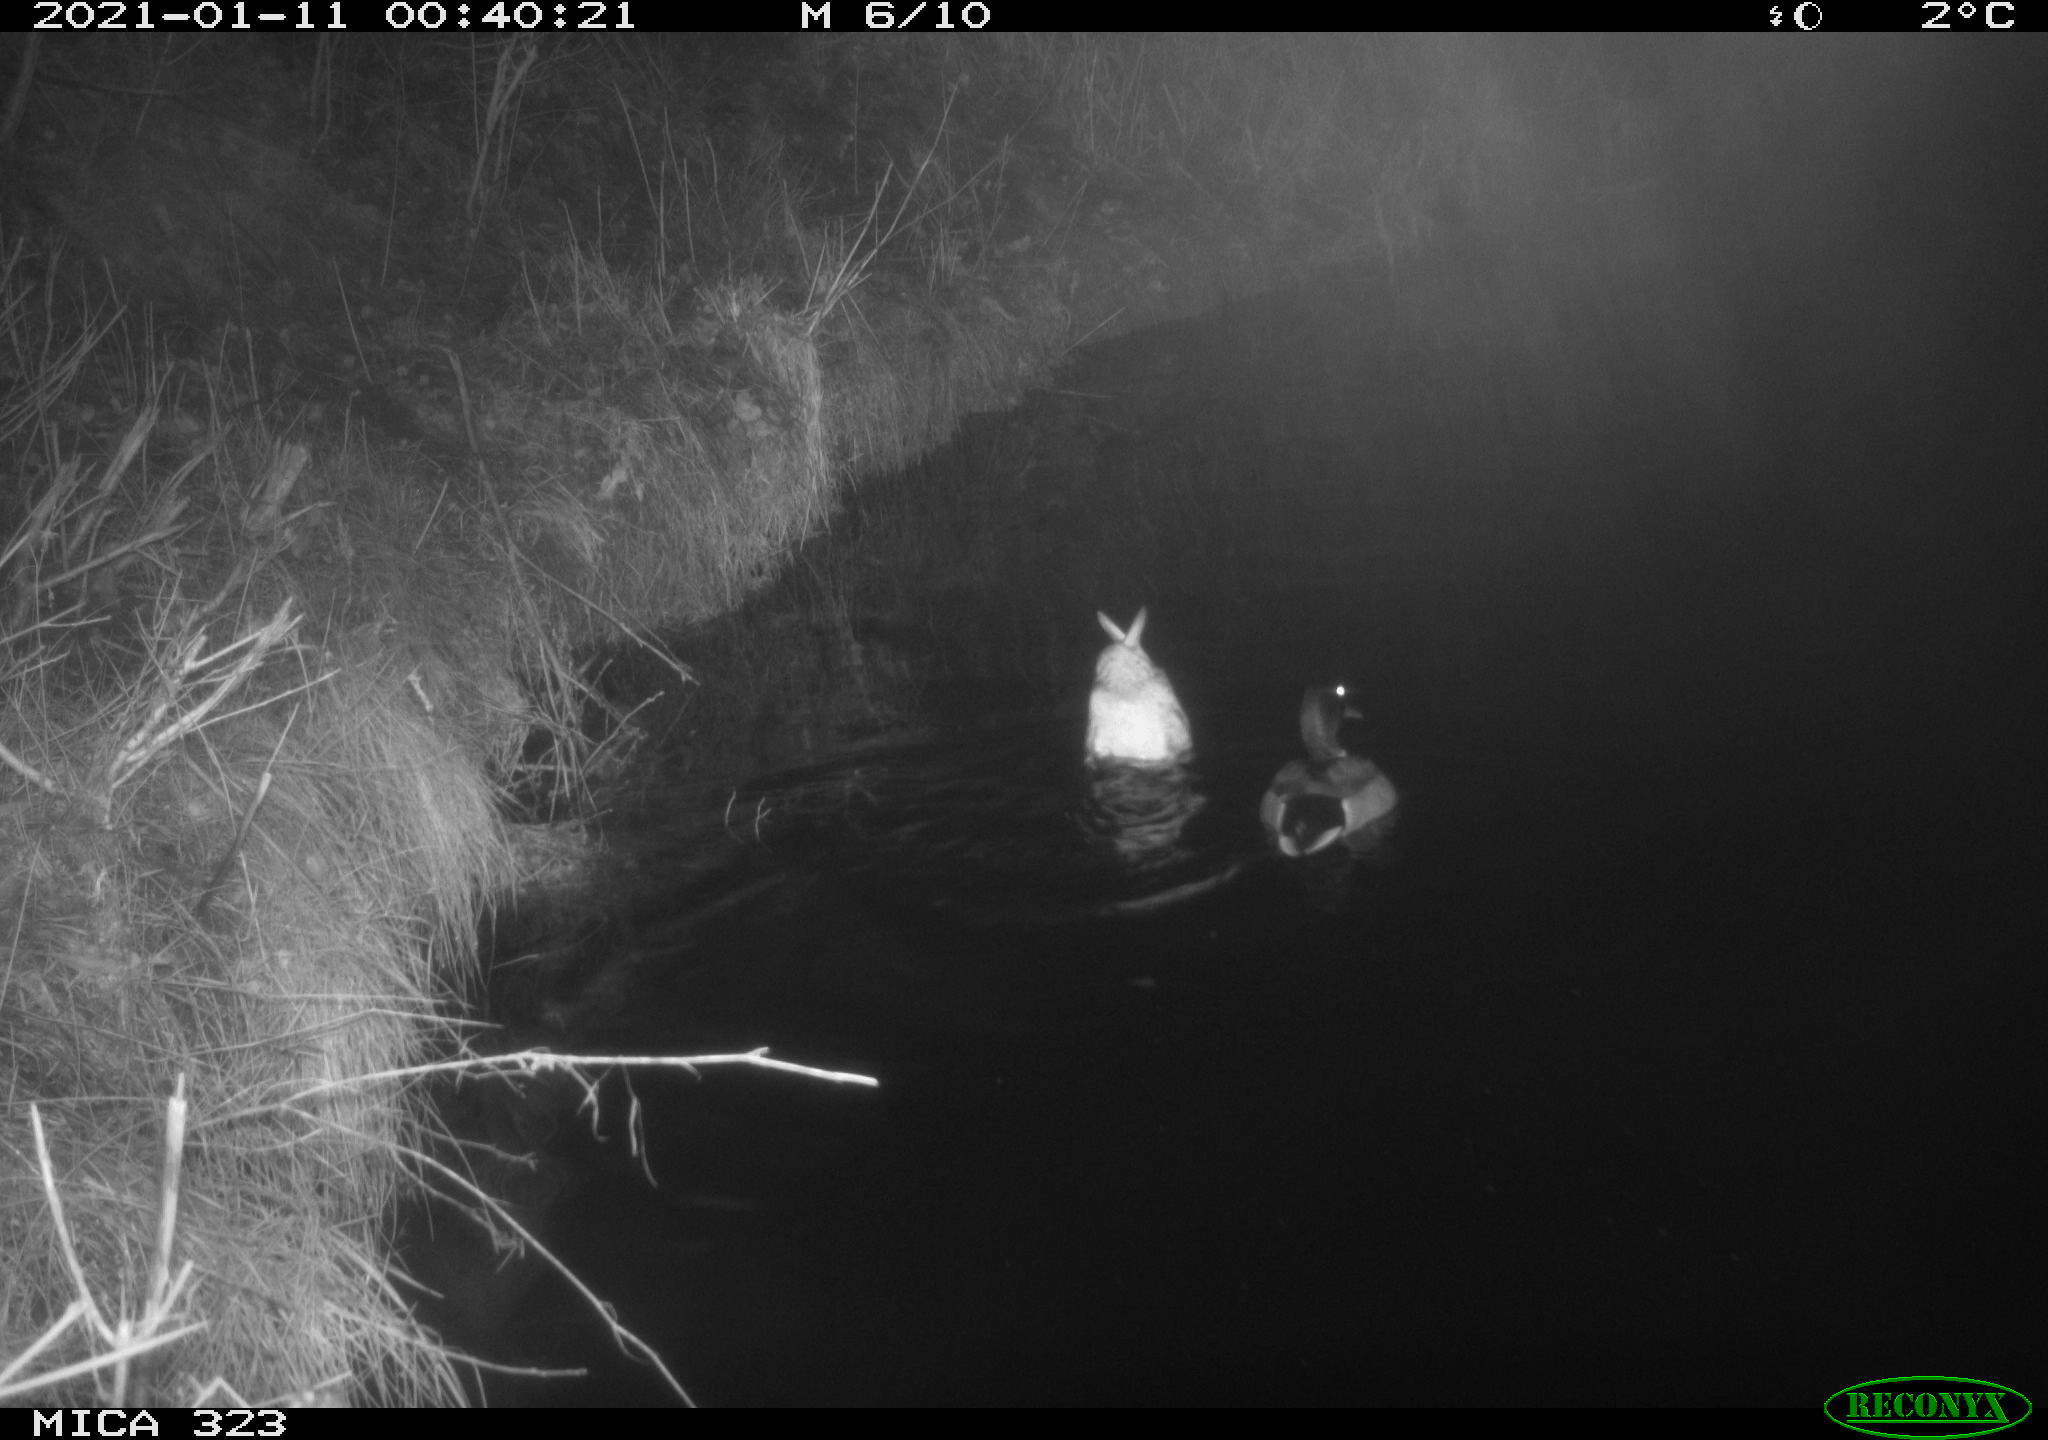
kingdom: Animalia
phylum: Chordata
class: Aves
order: Anseriformes
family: Anatidae
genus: Anas
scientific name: Anas platyrhynchos
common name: Mallard
